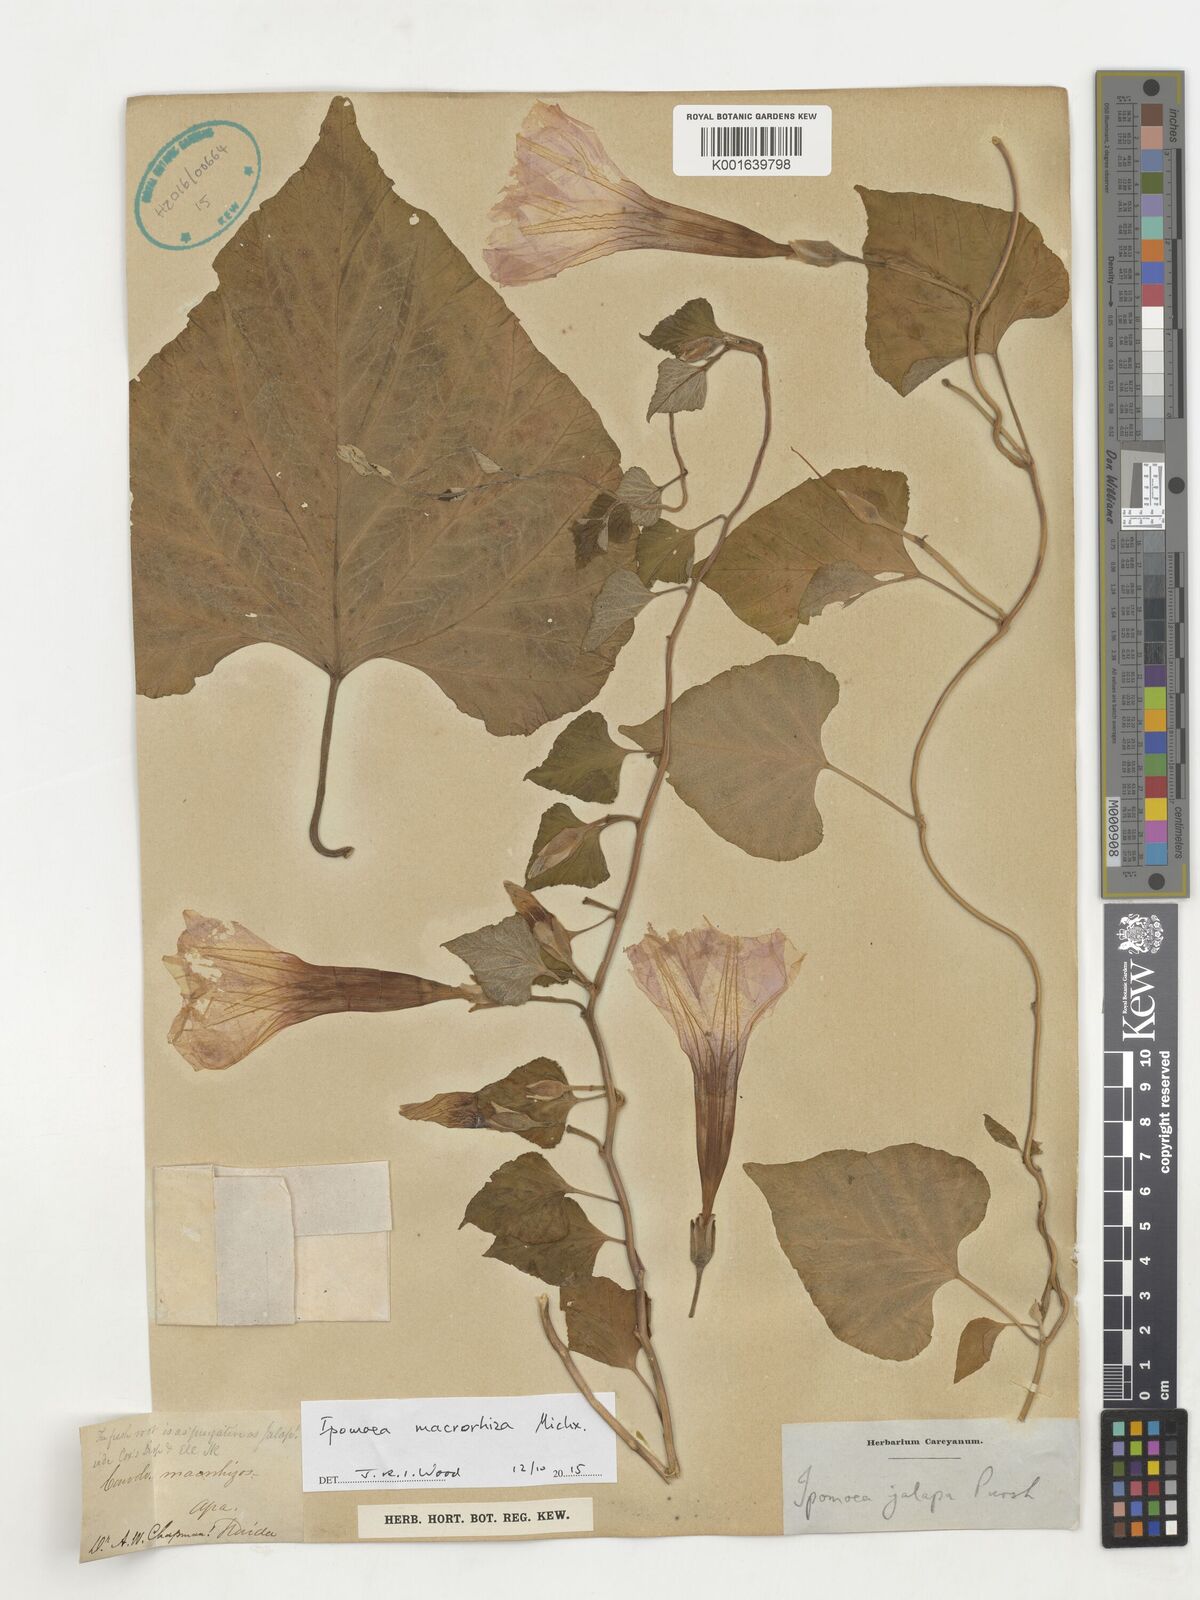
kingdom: Plantae
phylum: Tracheophyta
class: Magnoliopsida
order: Solanales
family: Convolvulaceae
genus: Ipomoea
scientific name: Ipomoea macrorhiza
